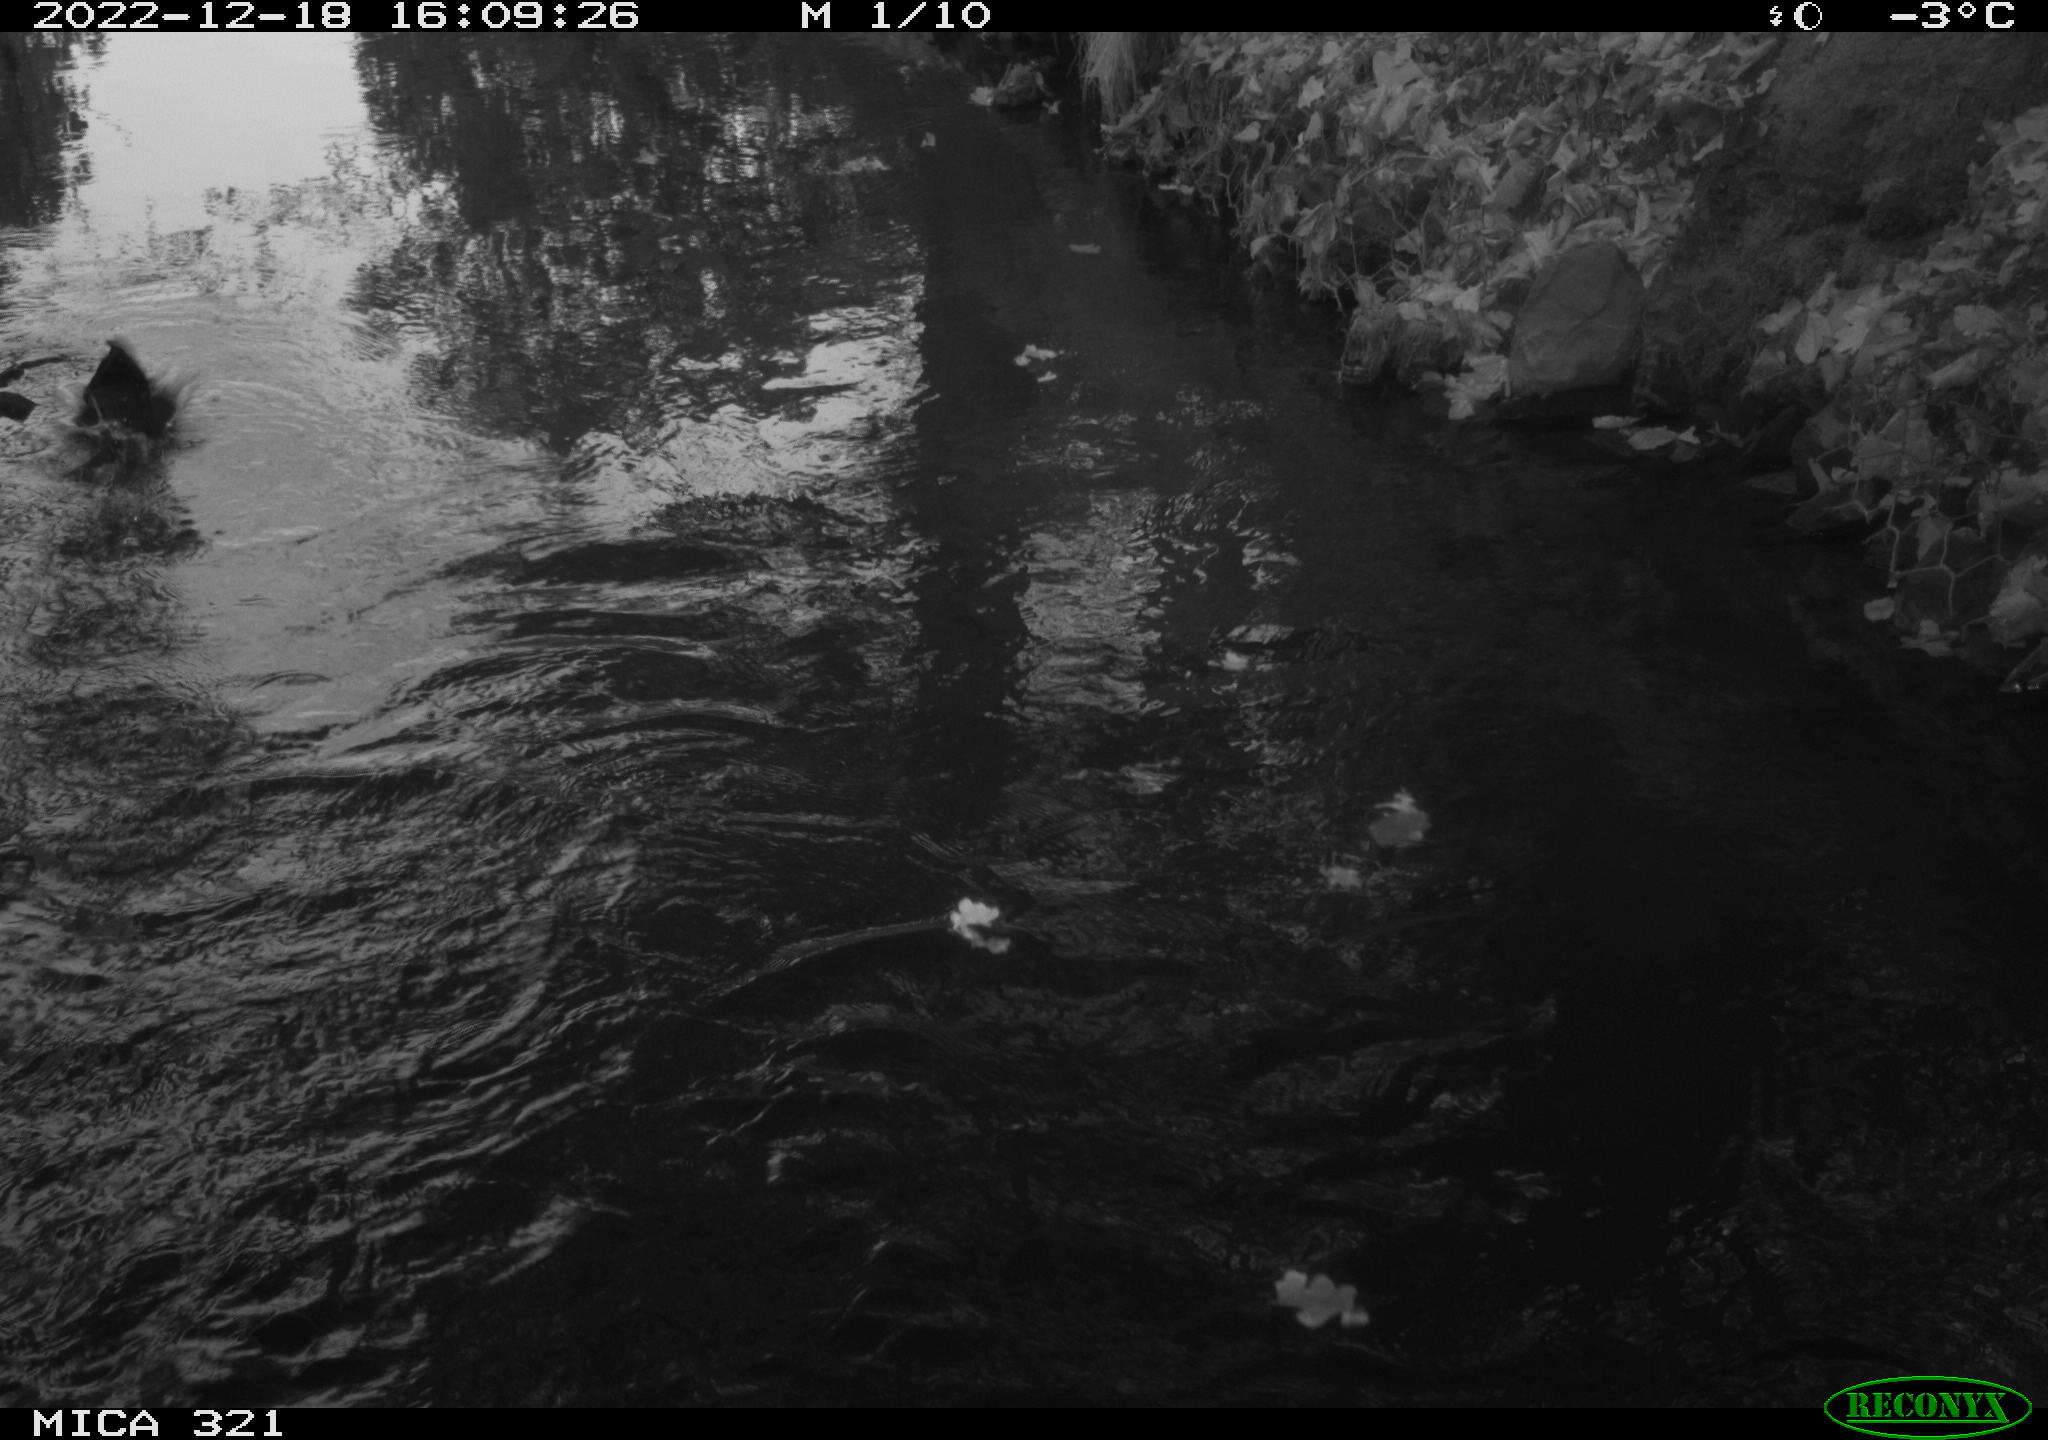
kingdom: Animalia
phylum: Chordata
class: Aves
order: Anseriformes
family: Anatidae
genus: Anas
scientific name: Anas
